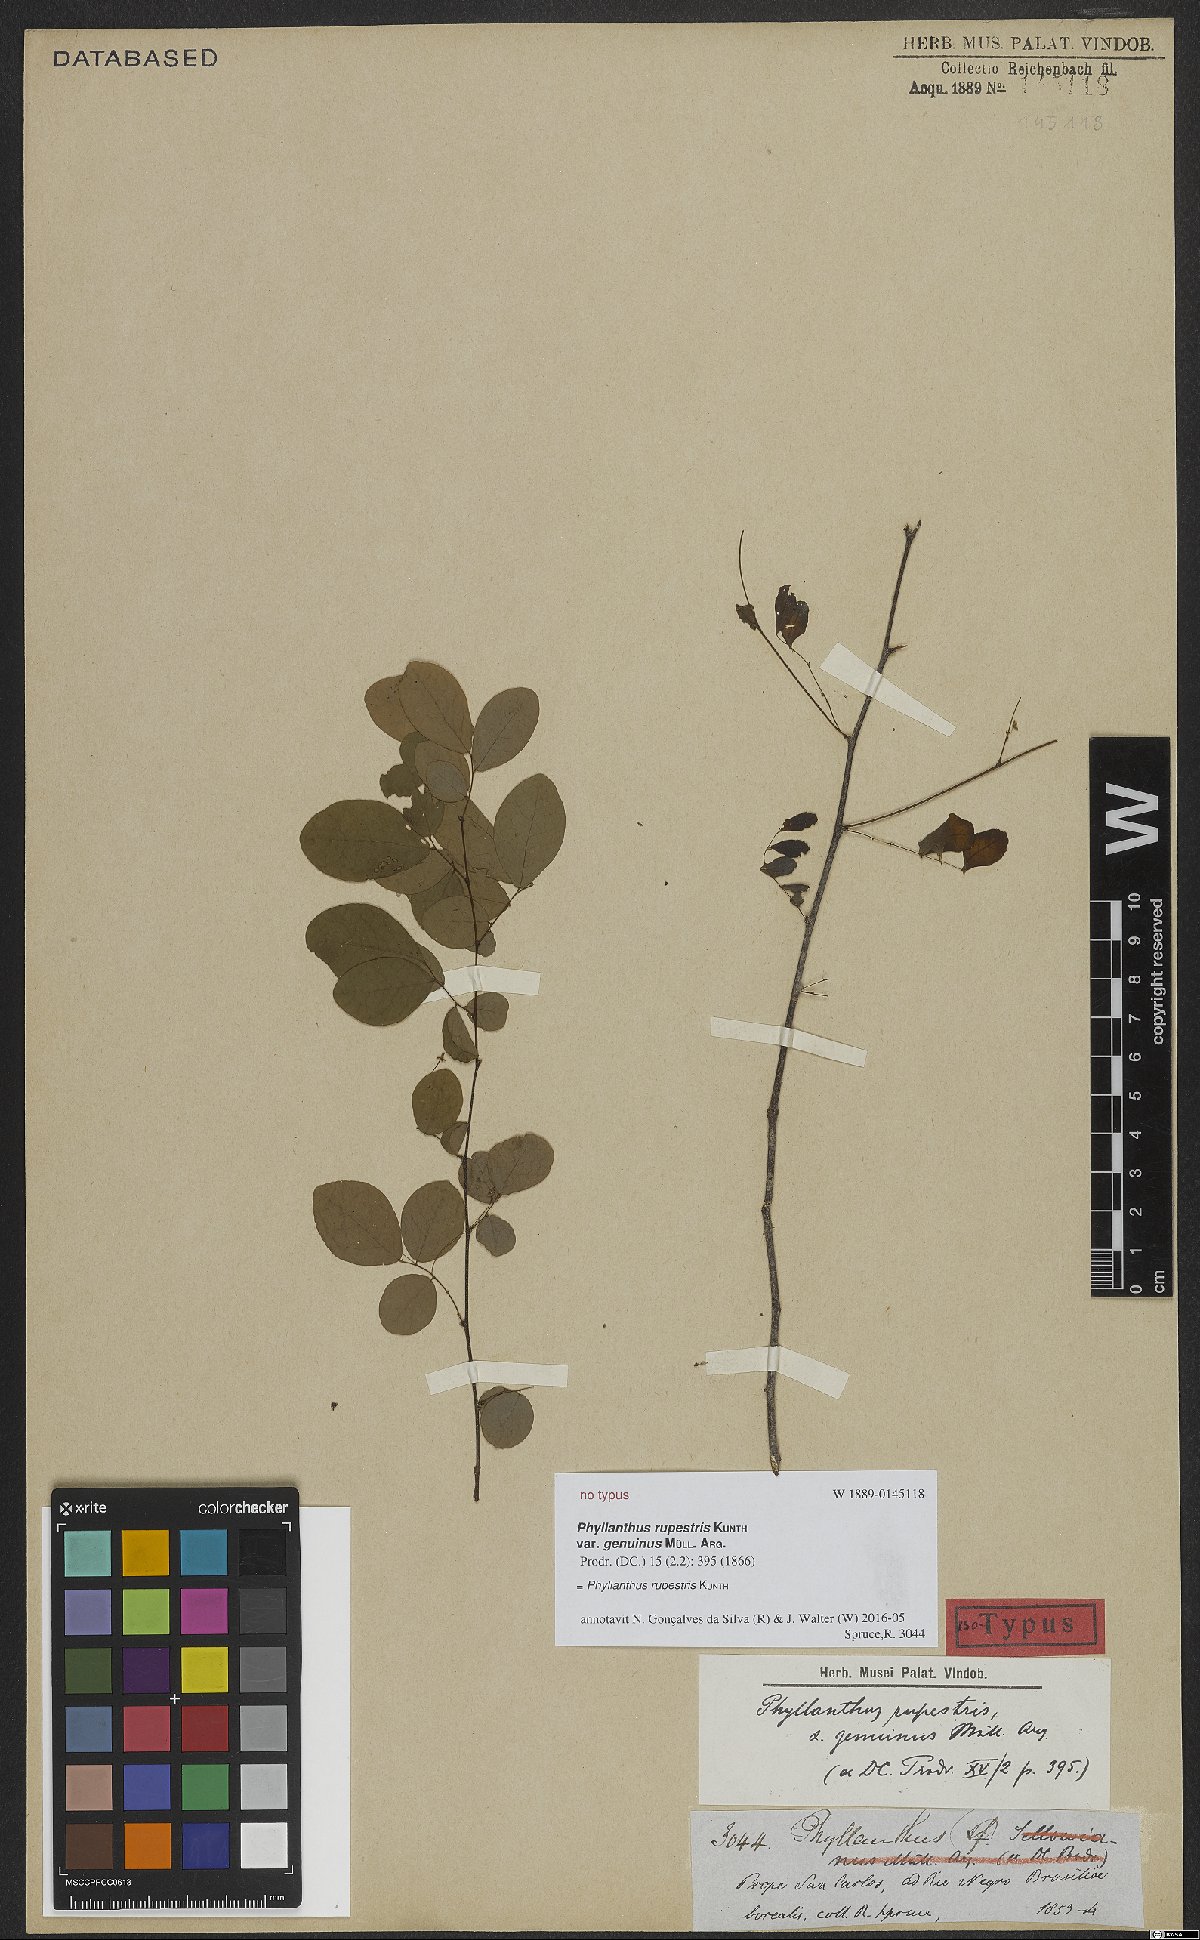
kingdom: Plantae
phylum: Tracheophyta
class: Magnoliopsida
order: Malpighiales
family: Phyllanthaceae
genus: Phyllanthus
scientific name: Phyllanthus rupestris
